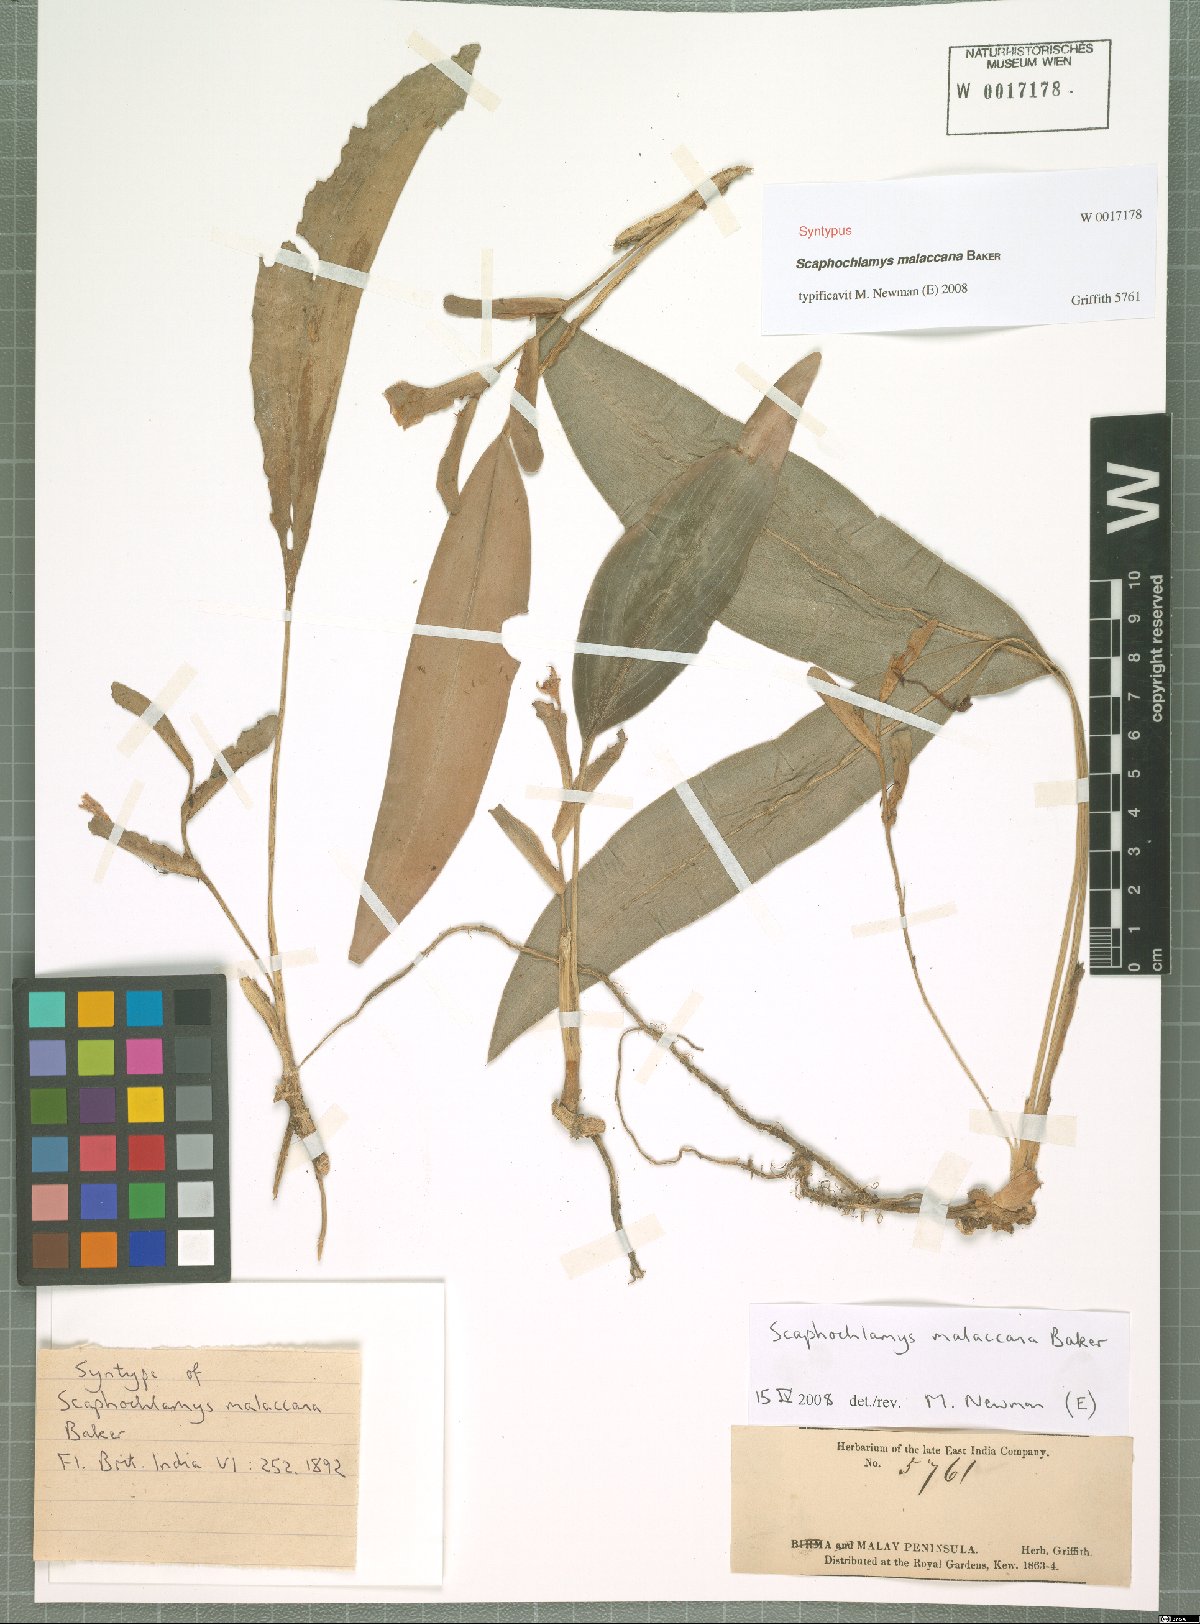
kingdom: Plantae
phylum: Tracheophyta
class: Liliopsida
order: Zingiberales
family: Zingiberaceae
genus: Scaphochlamys
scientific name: Scaphochlamys malaccana
